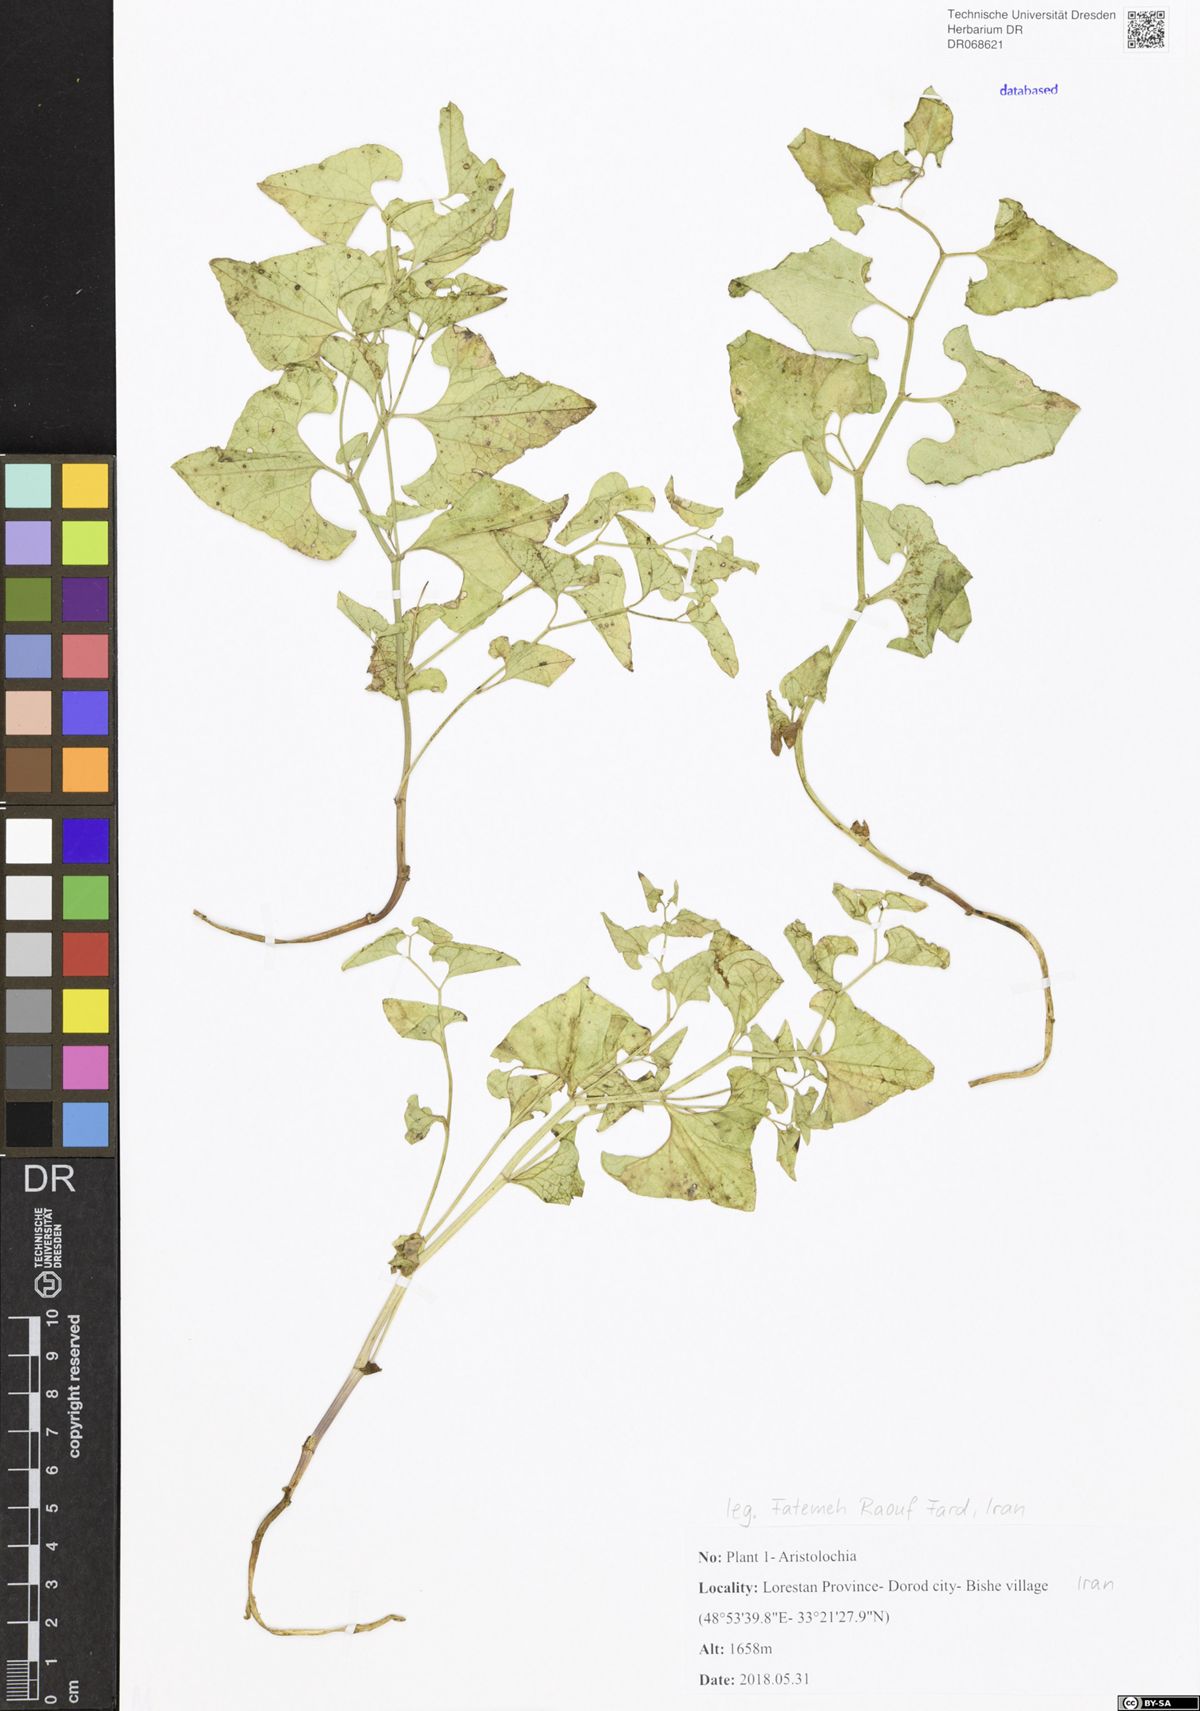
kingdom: Plantae
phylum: Tracheophyta
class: Magnoliopsida
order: Piperales
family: Aristolochiaceae
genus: Aristolochia
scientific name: Aristolochia
